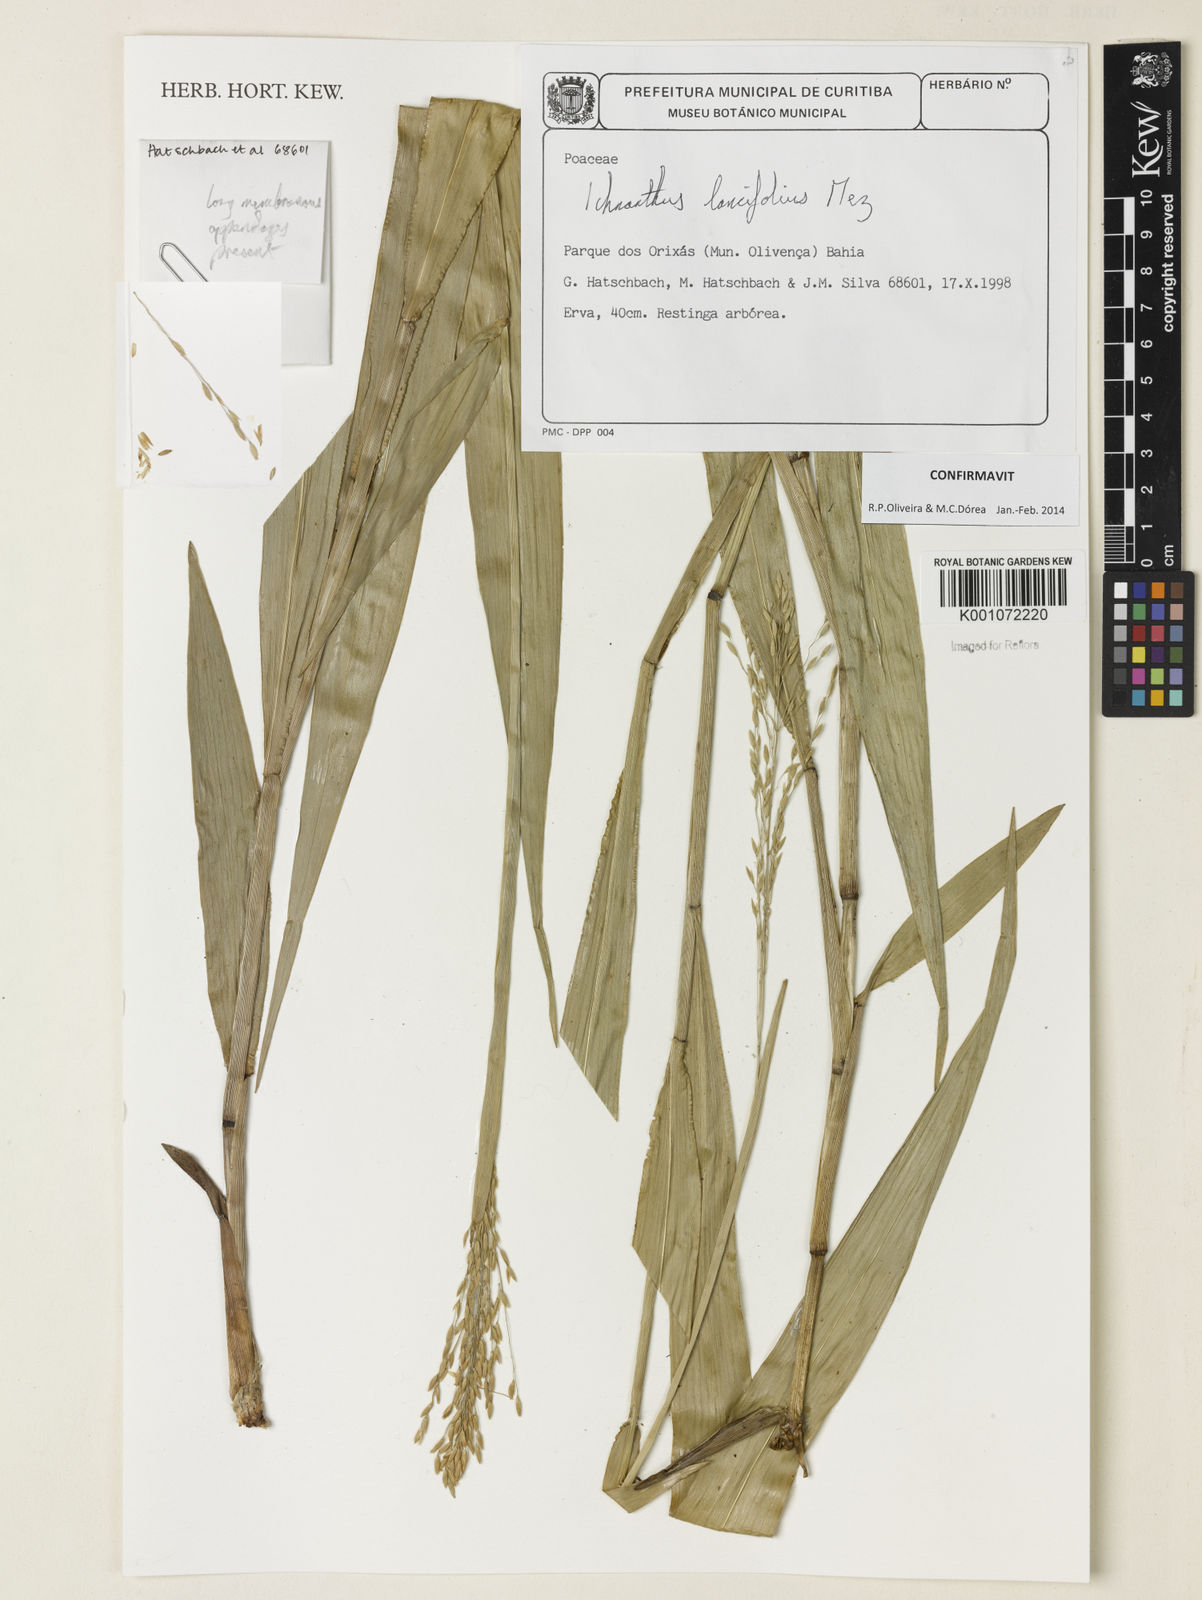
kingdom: Plantae
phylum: Tracheophyta
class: Liliopsida
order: Poales
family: Poaceae
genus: Ichnanthus
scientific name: Ichnanthus lancifolius
